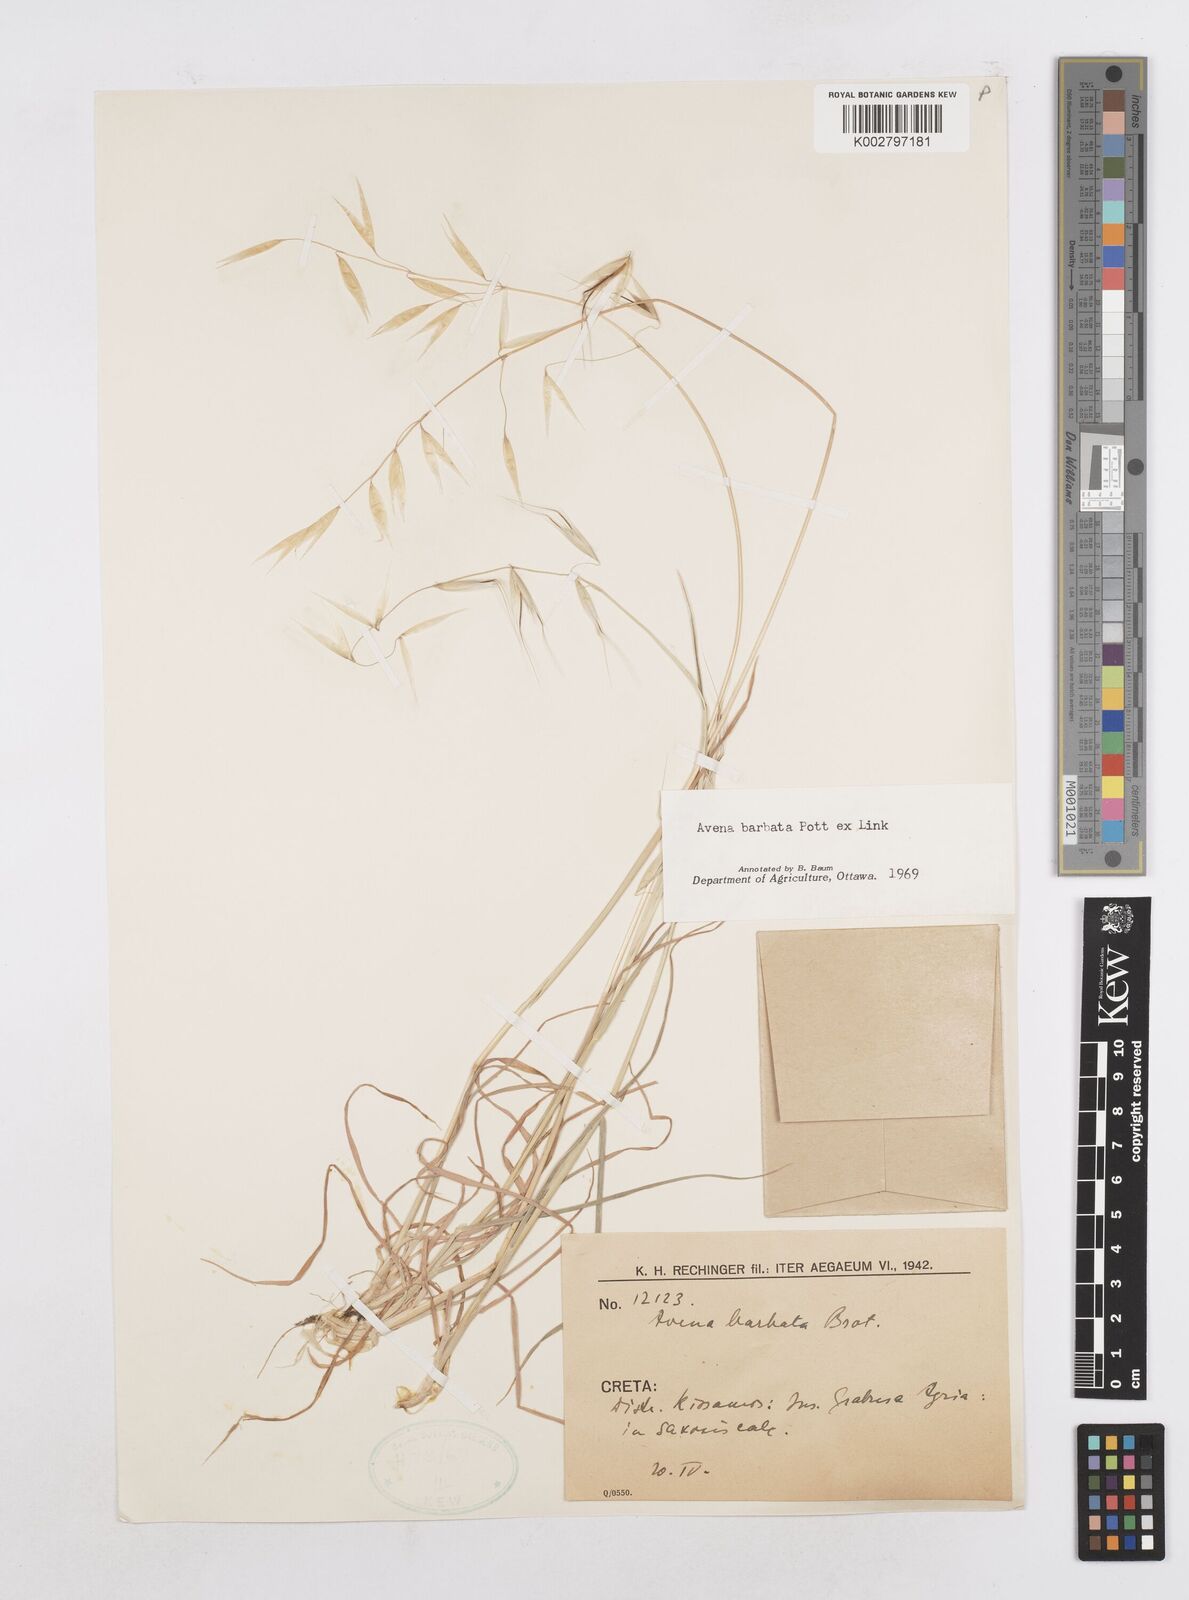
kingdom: Plantae
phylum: Tracheophyta
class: Liliopsida
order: Poales
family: Poaceae
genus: Avena
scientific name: Avena
